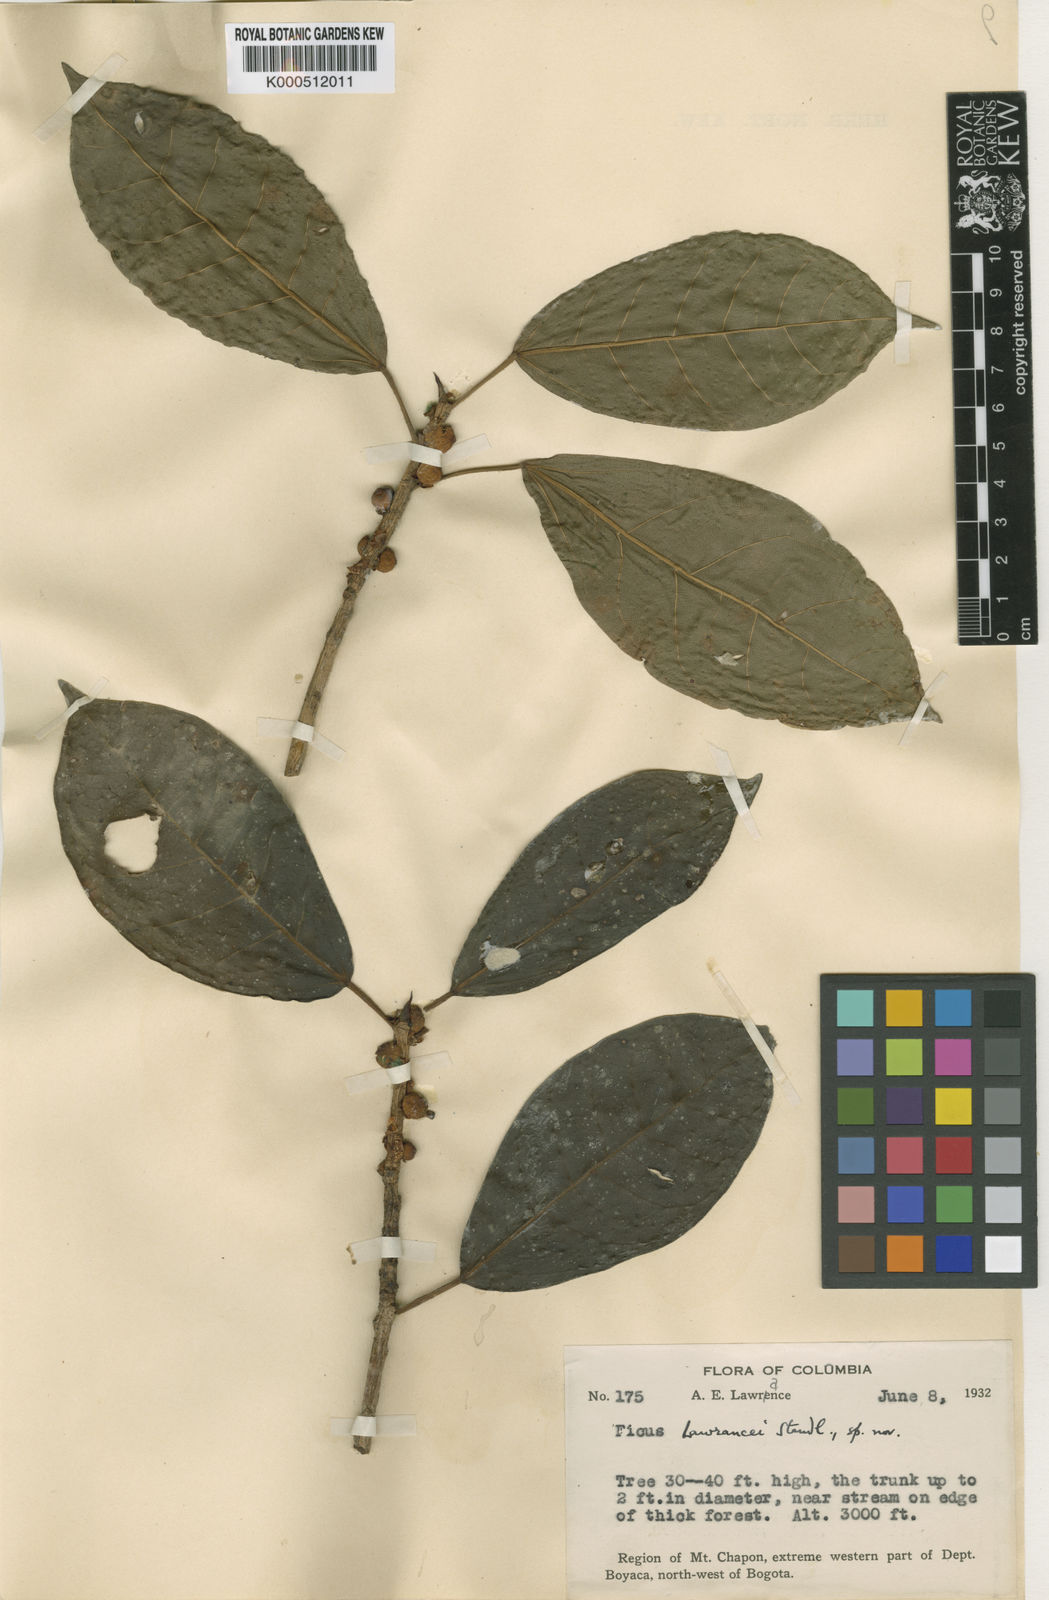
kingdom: Plantae
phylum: Tracheophyta
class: Magnoliopsida
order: Rosales
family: Moraceae
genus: Ficus
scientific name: Ficus lawrancei
